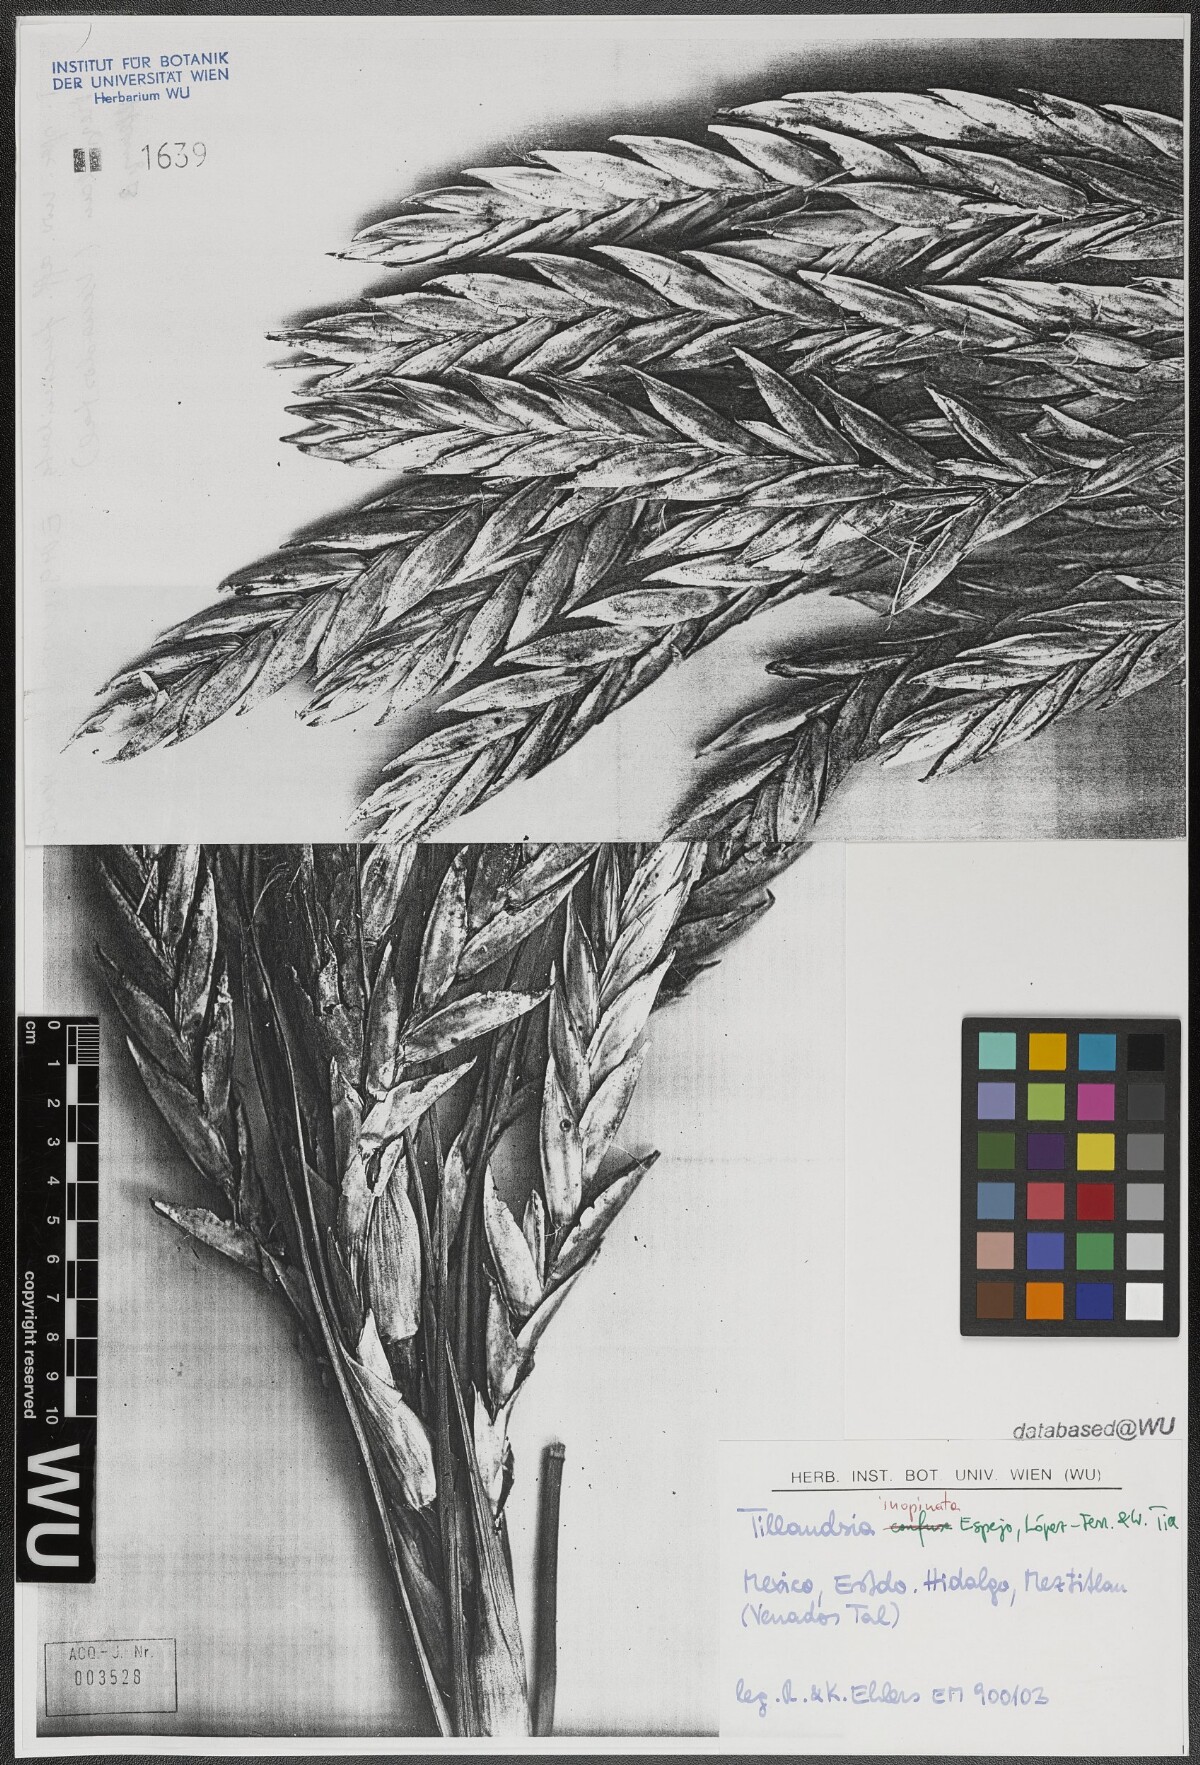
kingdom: Plantae
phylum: Tracheophyta
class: Liliopsida
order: Poales
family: Bromeliaceae
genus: Tillandsia
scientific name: Tillandsia inopinata
